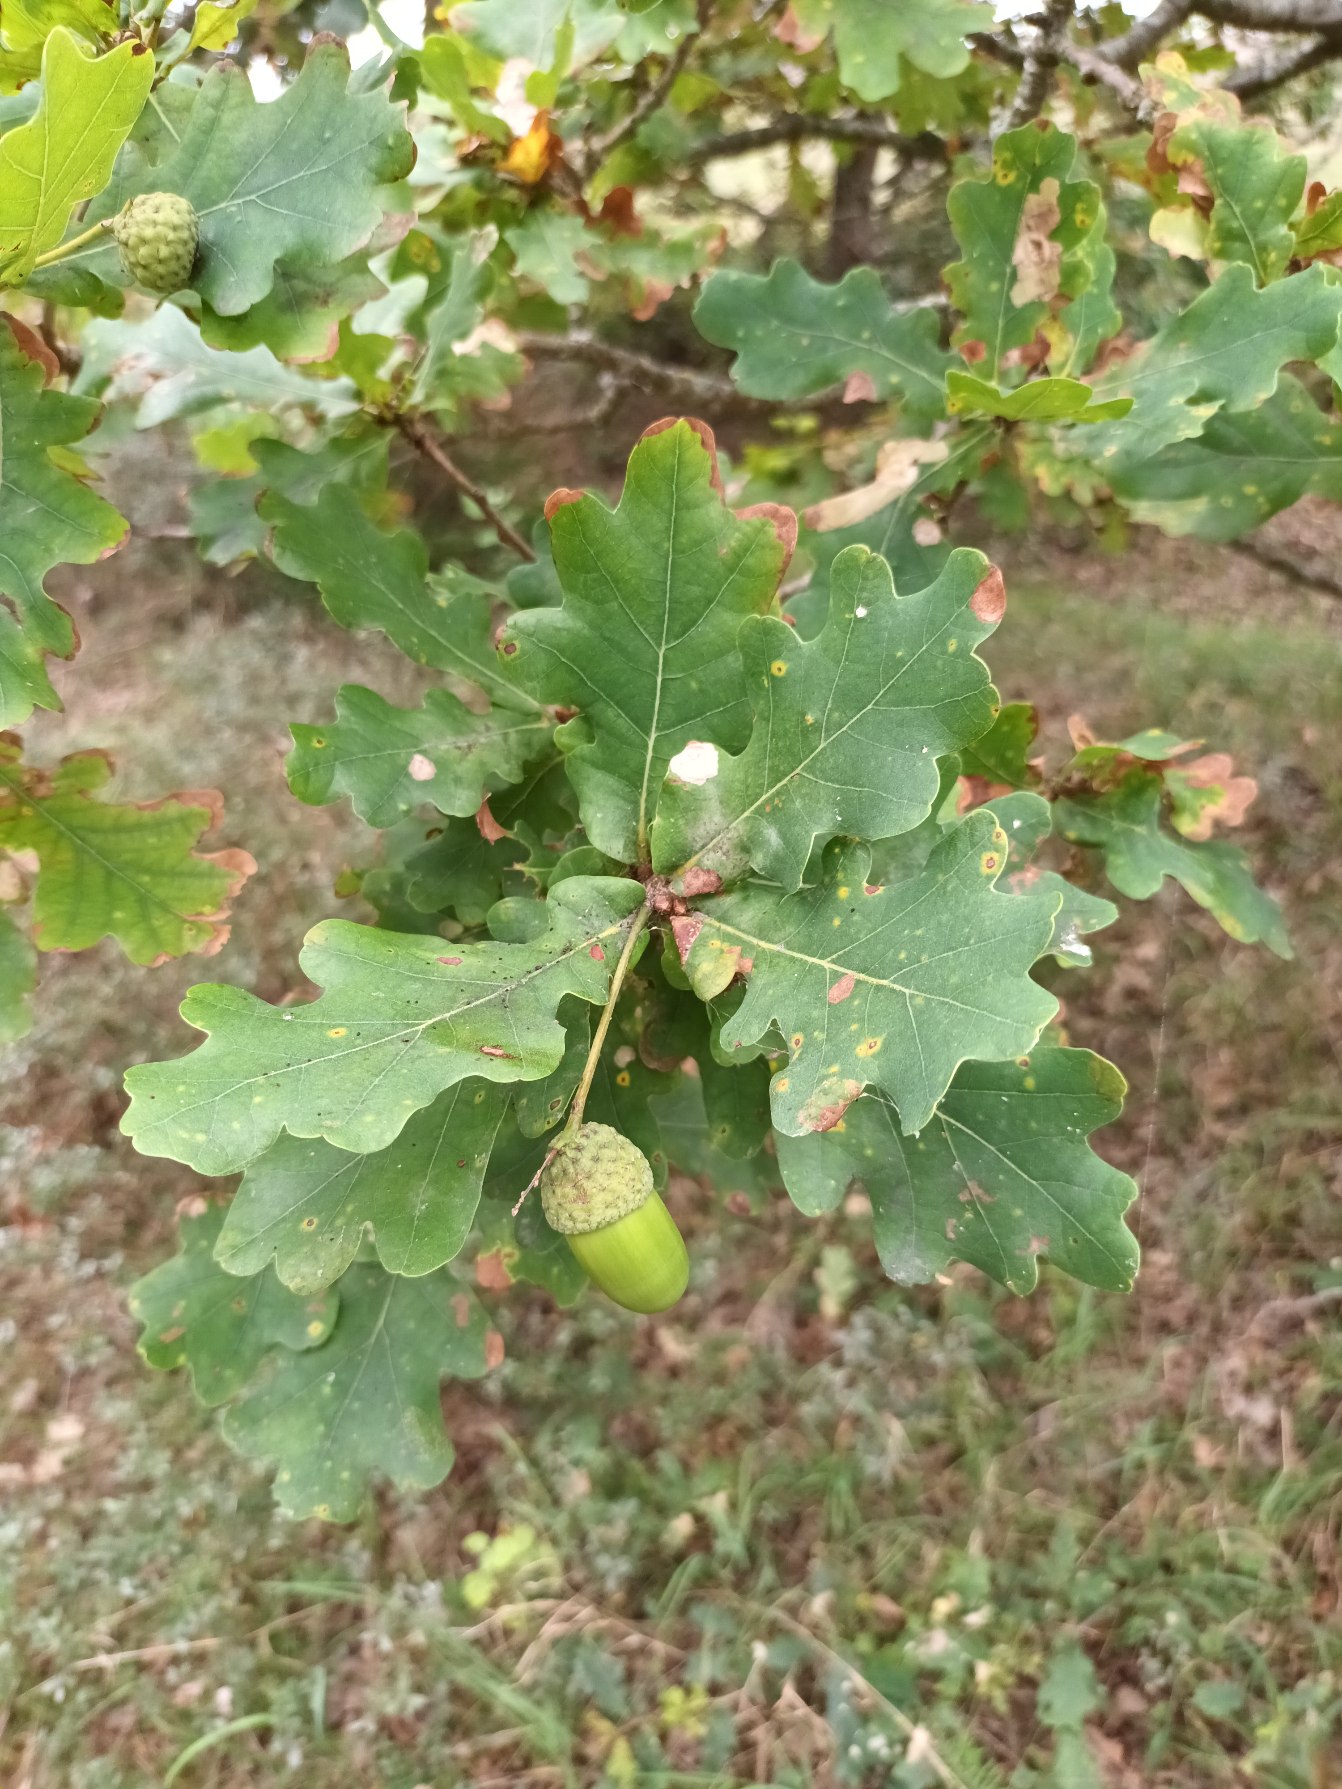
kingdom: Plantae
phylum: Tracheophyta
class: Magnoliopsida
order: Fagales
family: Fagaceae
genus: Quercus
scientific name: Quercus robur
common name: Stilk-eg/almindelig eg
